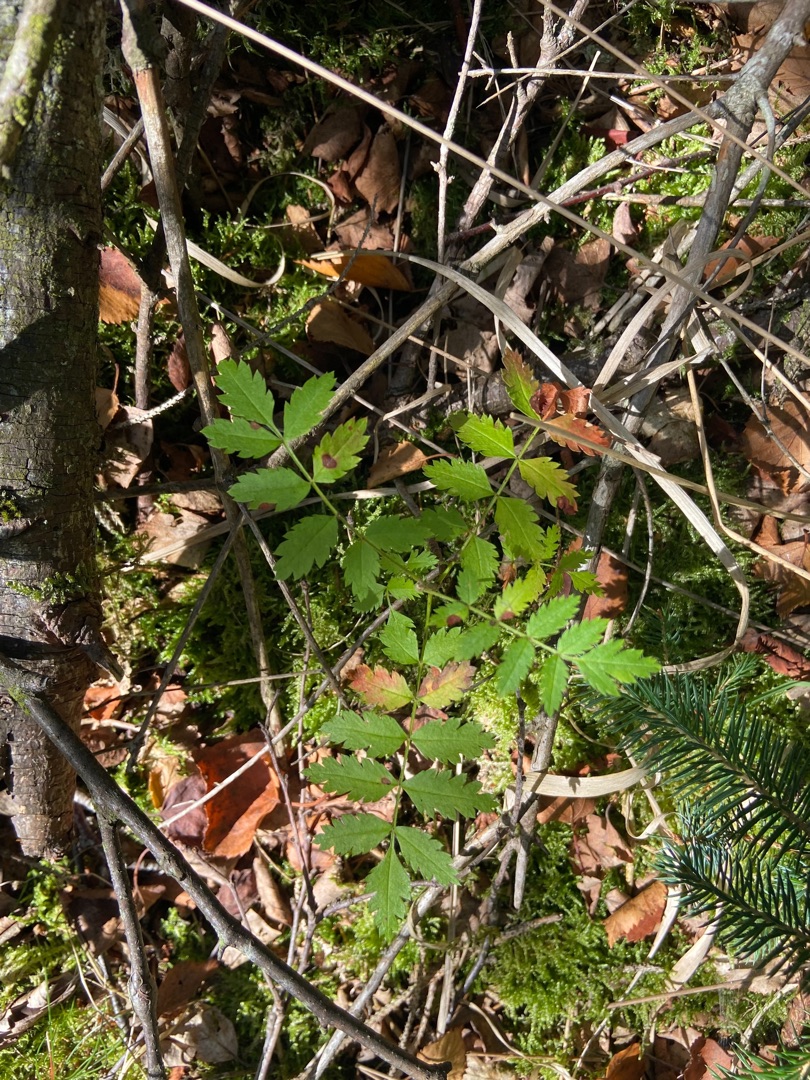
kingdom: Plantae
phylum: Tracheophyta
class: Magnoliopsida
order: Rosales
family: Rosaceae
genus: Sorbus
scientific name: Sorbus aucuparia
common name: Almindelig røn
